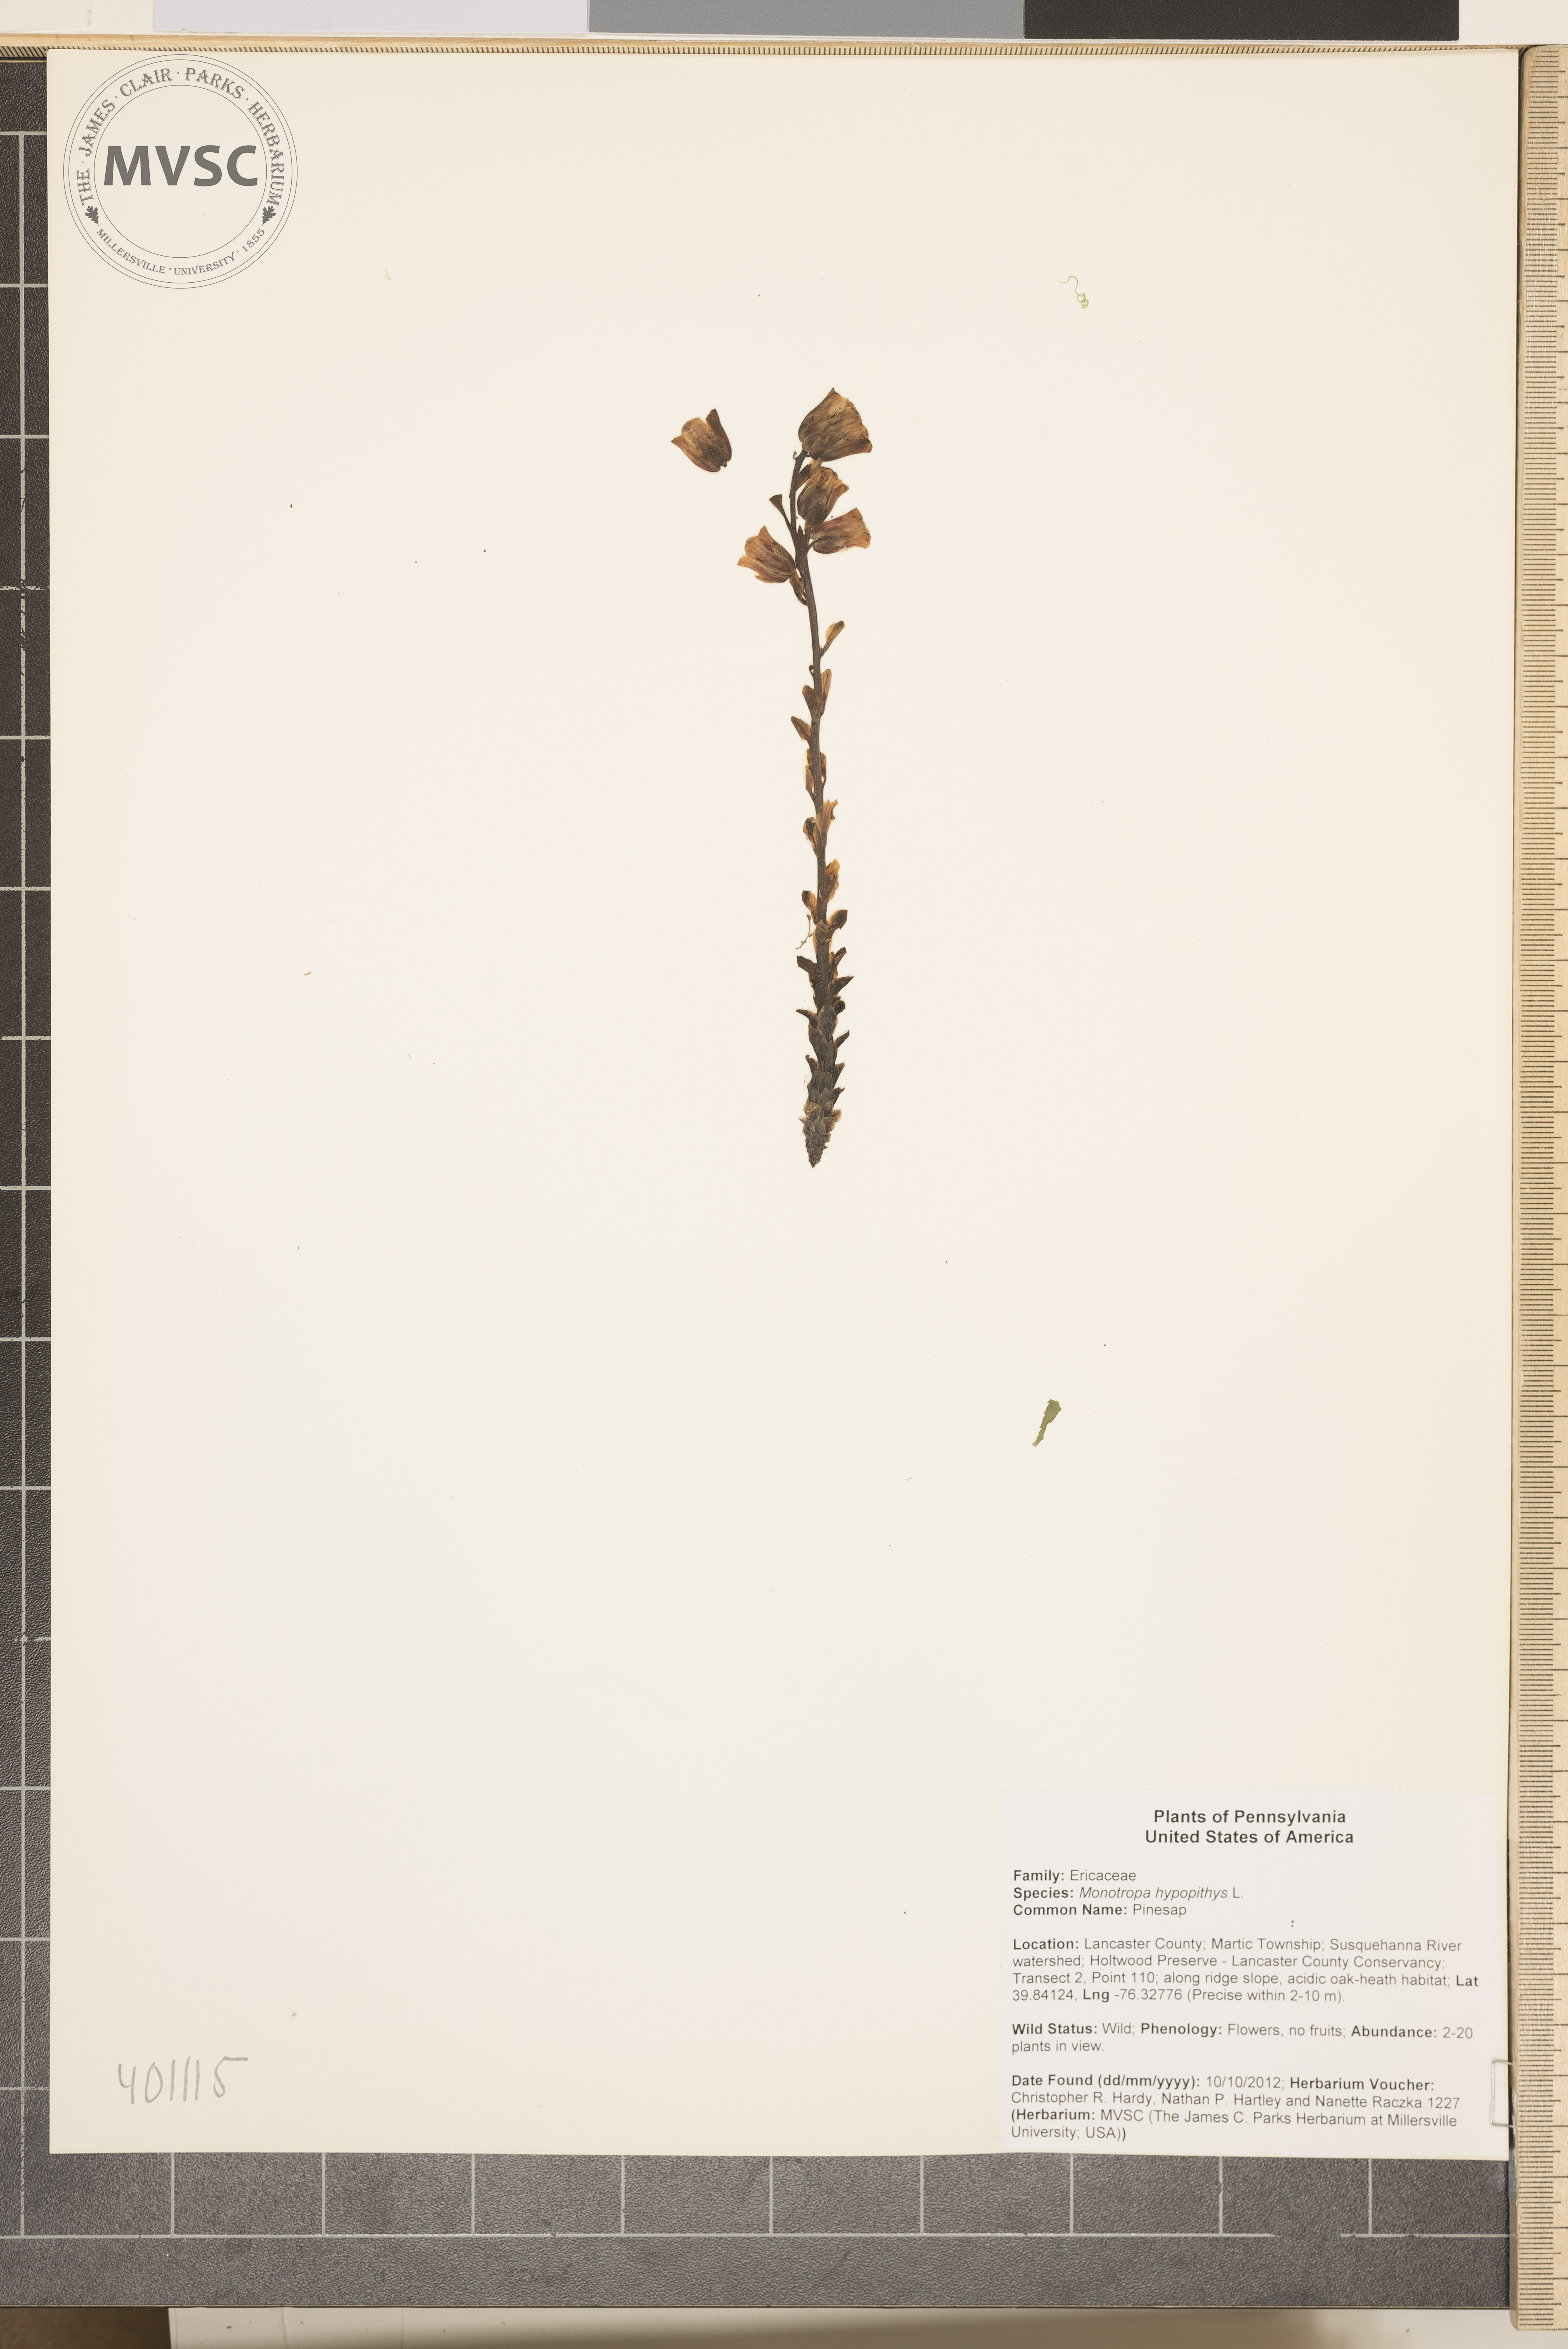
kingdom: Plantae
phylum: Tracheophyta
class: Magnoliopsida
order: Ericales
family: Ericaceae
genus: Hypopitys
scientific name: Hypopitys monotropa
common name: Pinesap
